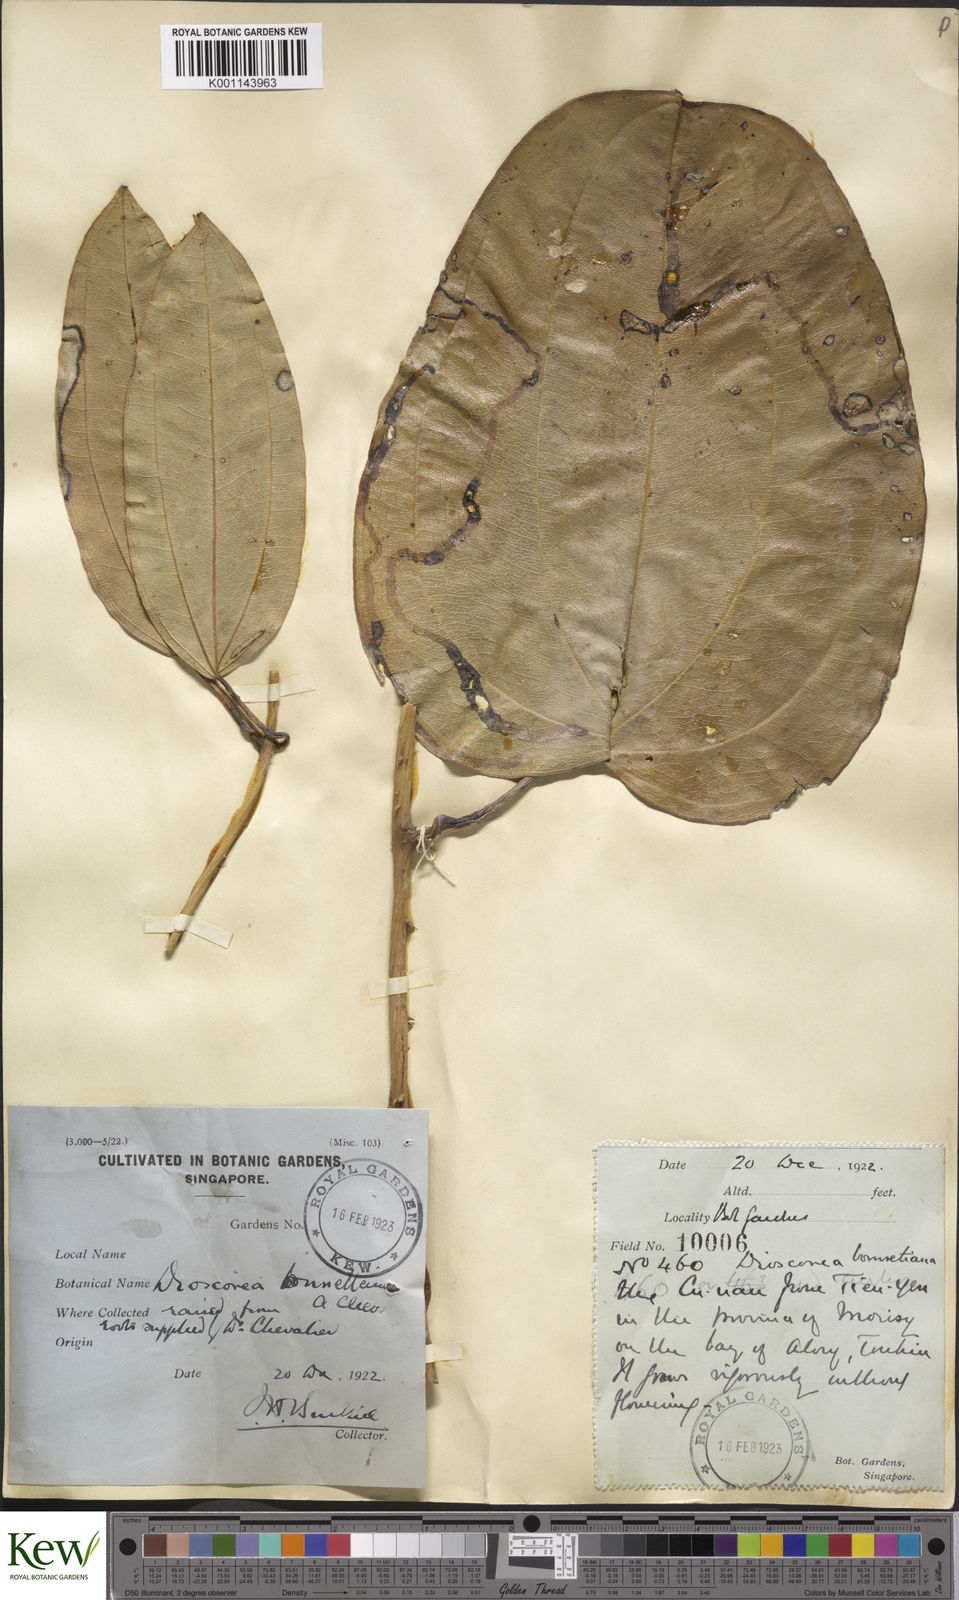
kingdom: Plantae
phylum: Tracheophyta
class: Liliopsida
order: Dioscoreales
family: Dioscoreaceae
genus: Dioscorea
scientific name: Dioscorea cirrhosa
